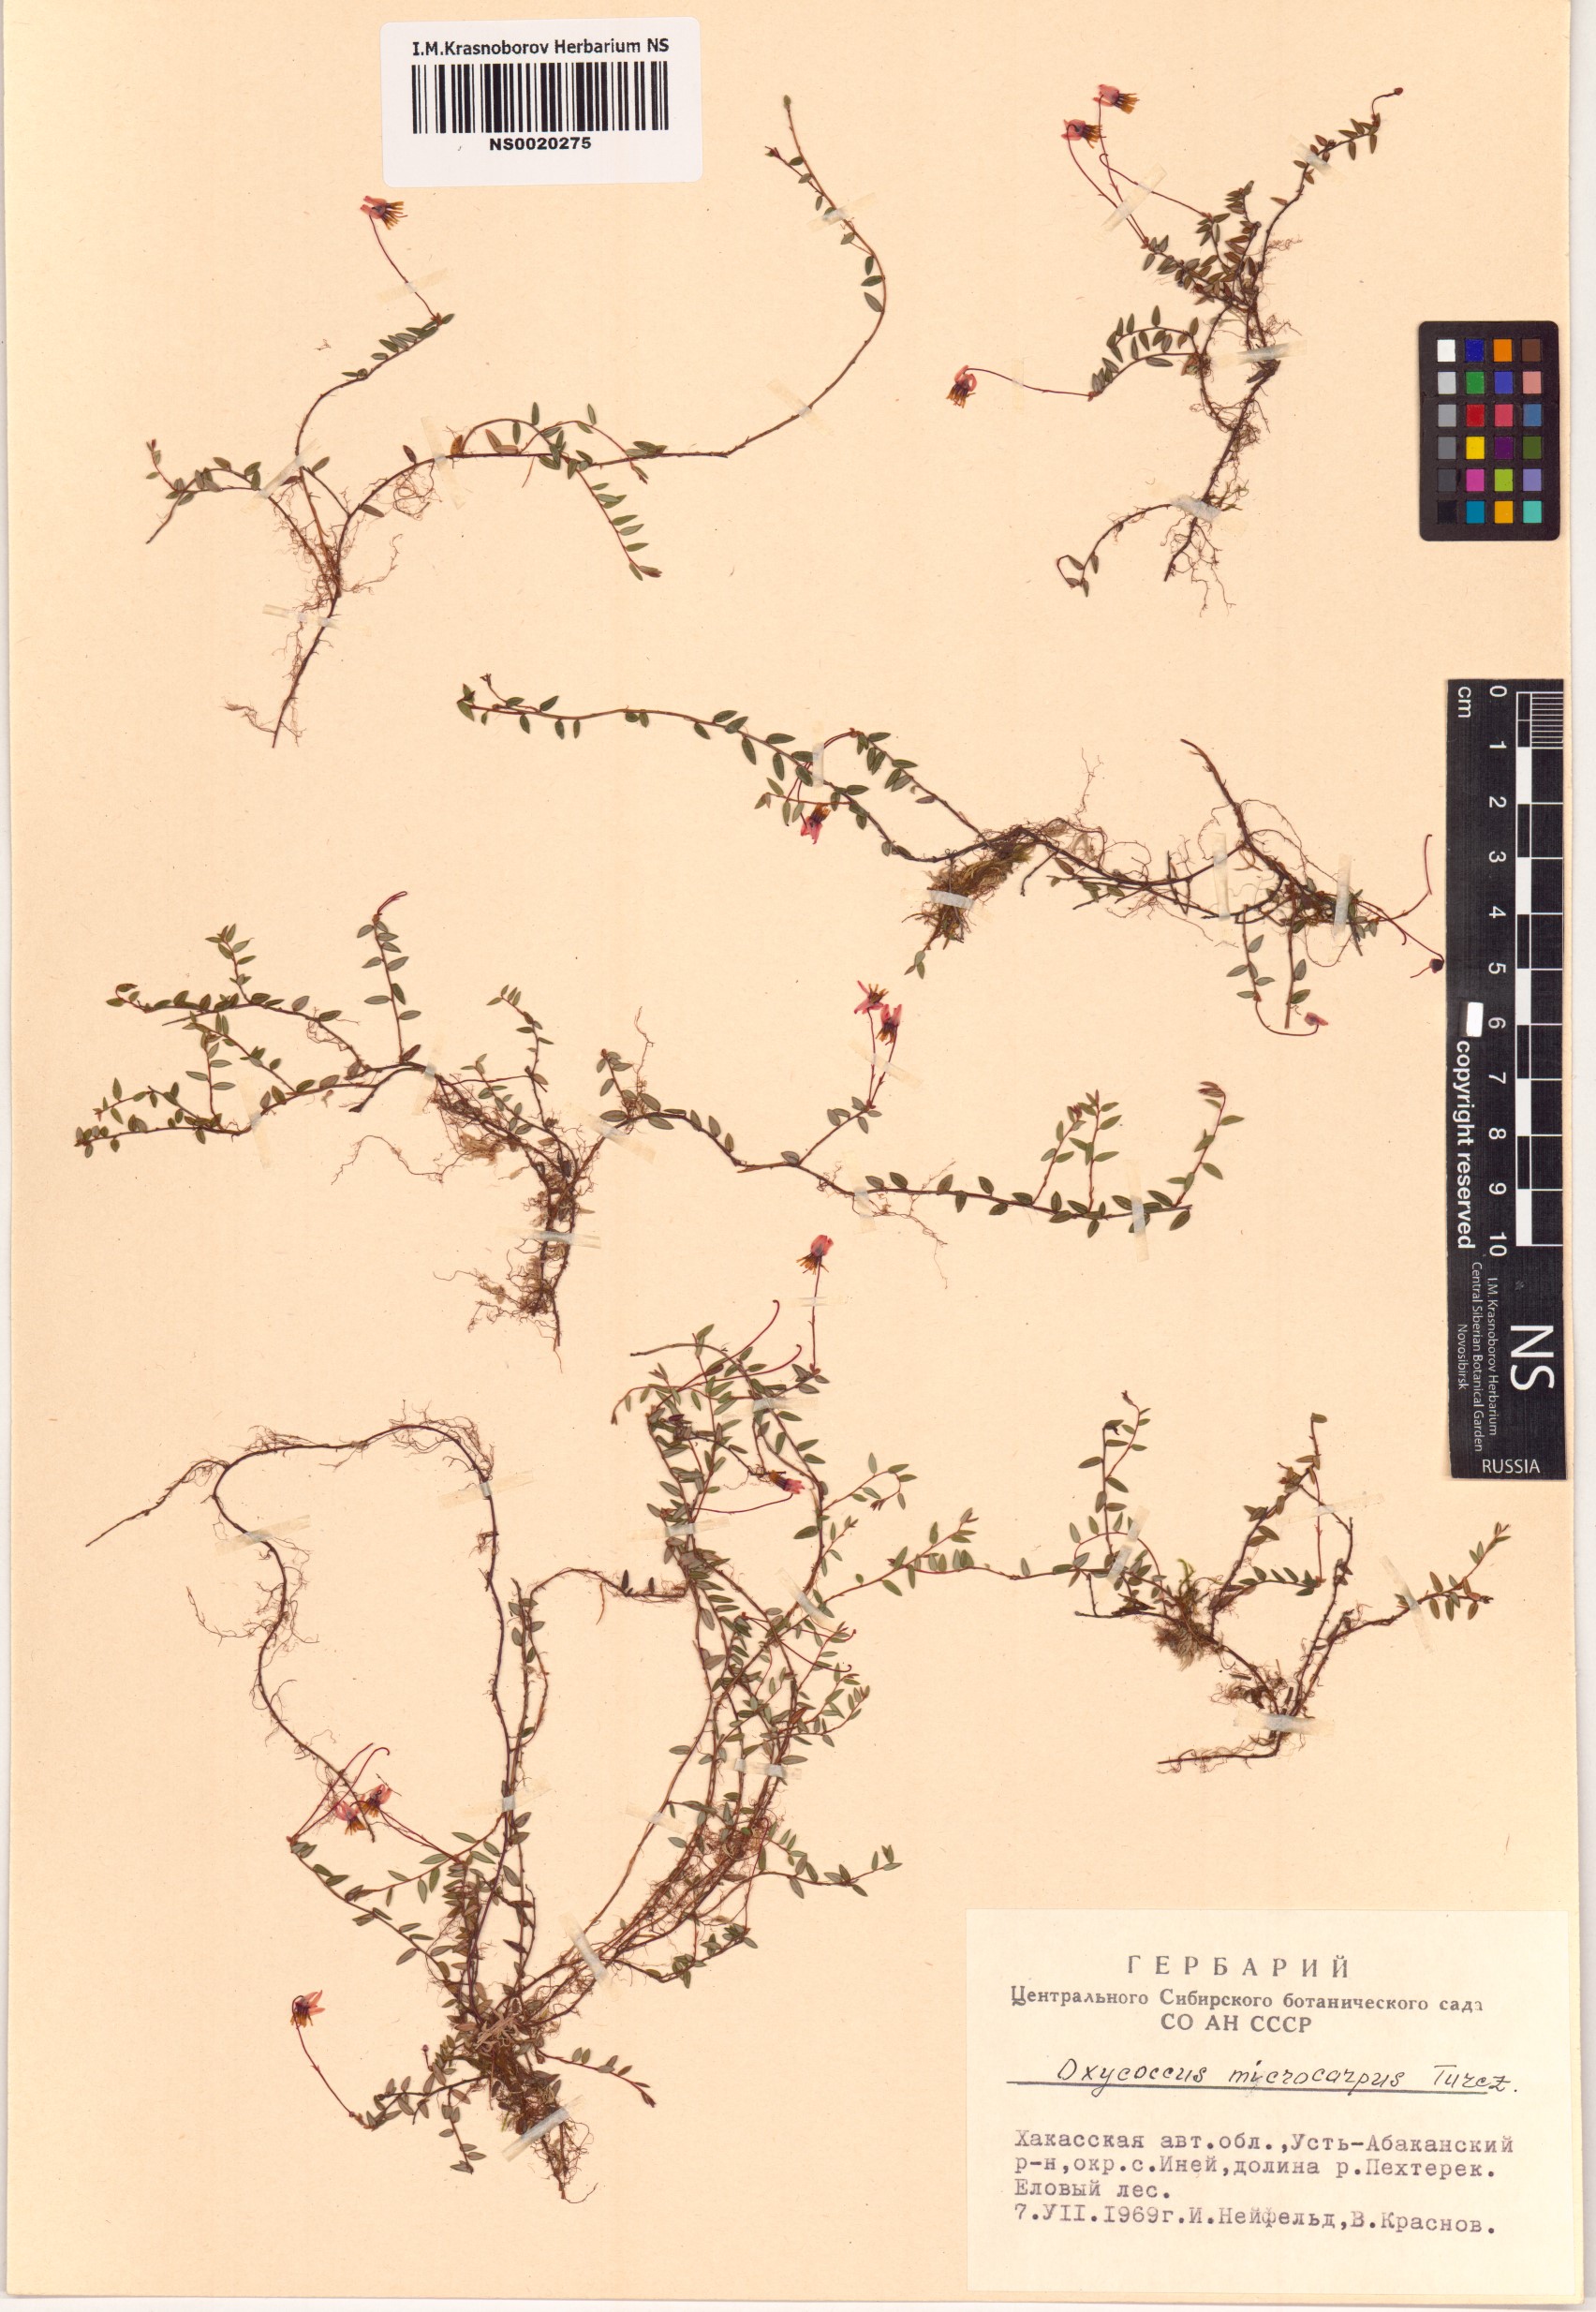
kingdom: Plantae
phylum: Tracheophyta
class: Magnoliopsida
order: Ericales
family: Ericaceae
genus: Vaccinium
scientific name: Vaccinium microcarpum
